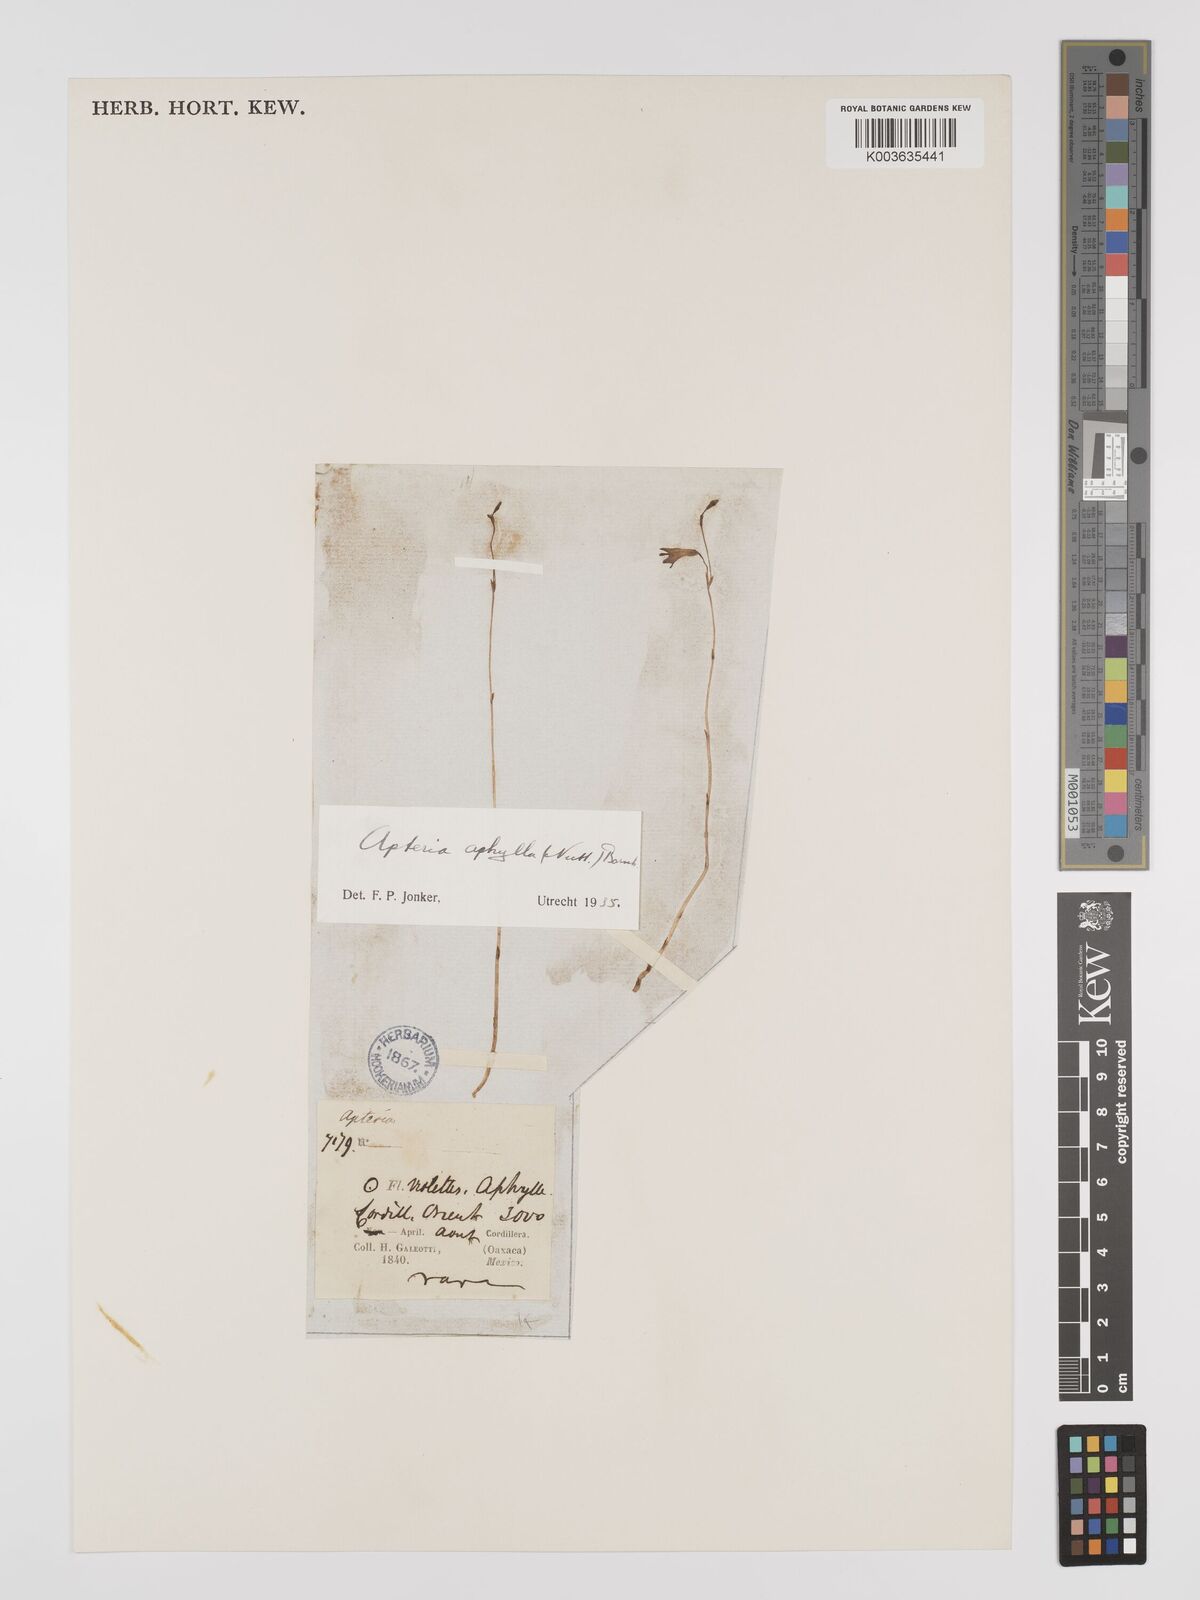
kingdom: Plantae
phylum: Tracheophyta
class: Liliopsida
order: Dioscoreales
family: Burmanniaceae
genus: Apteria
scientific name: Apteria aphylla
